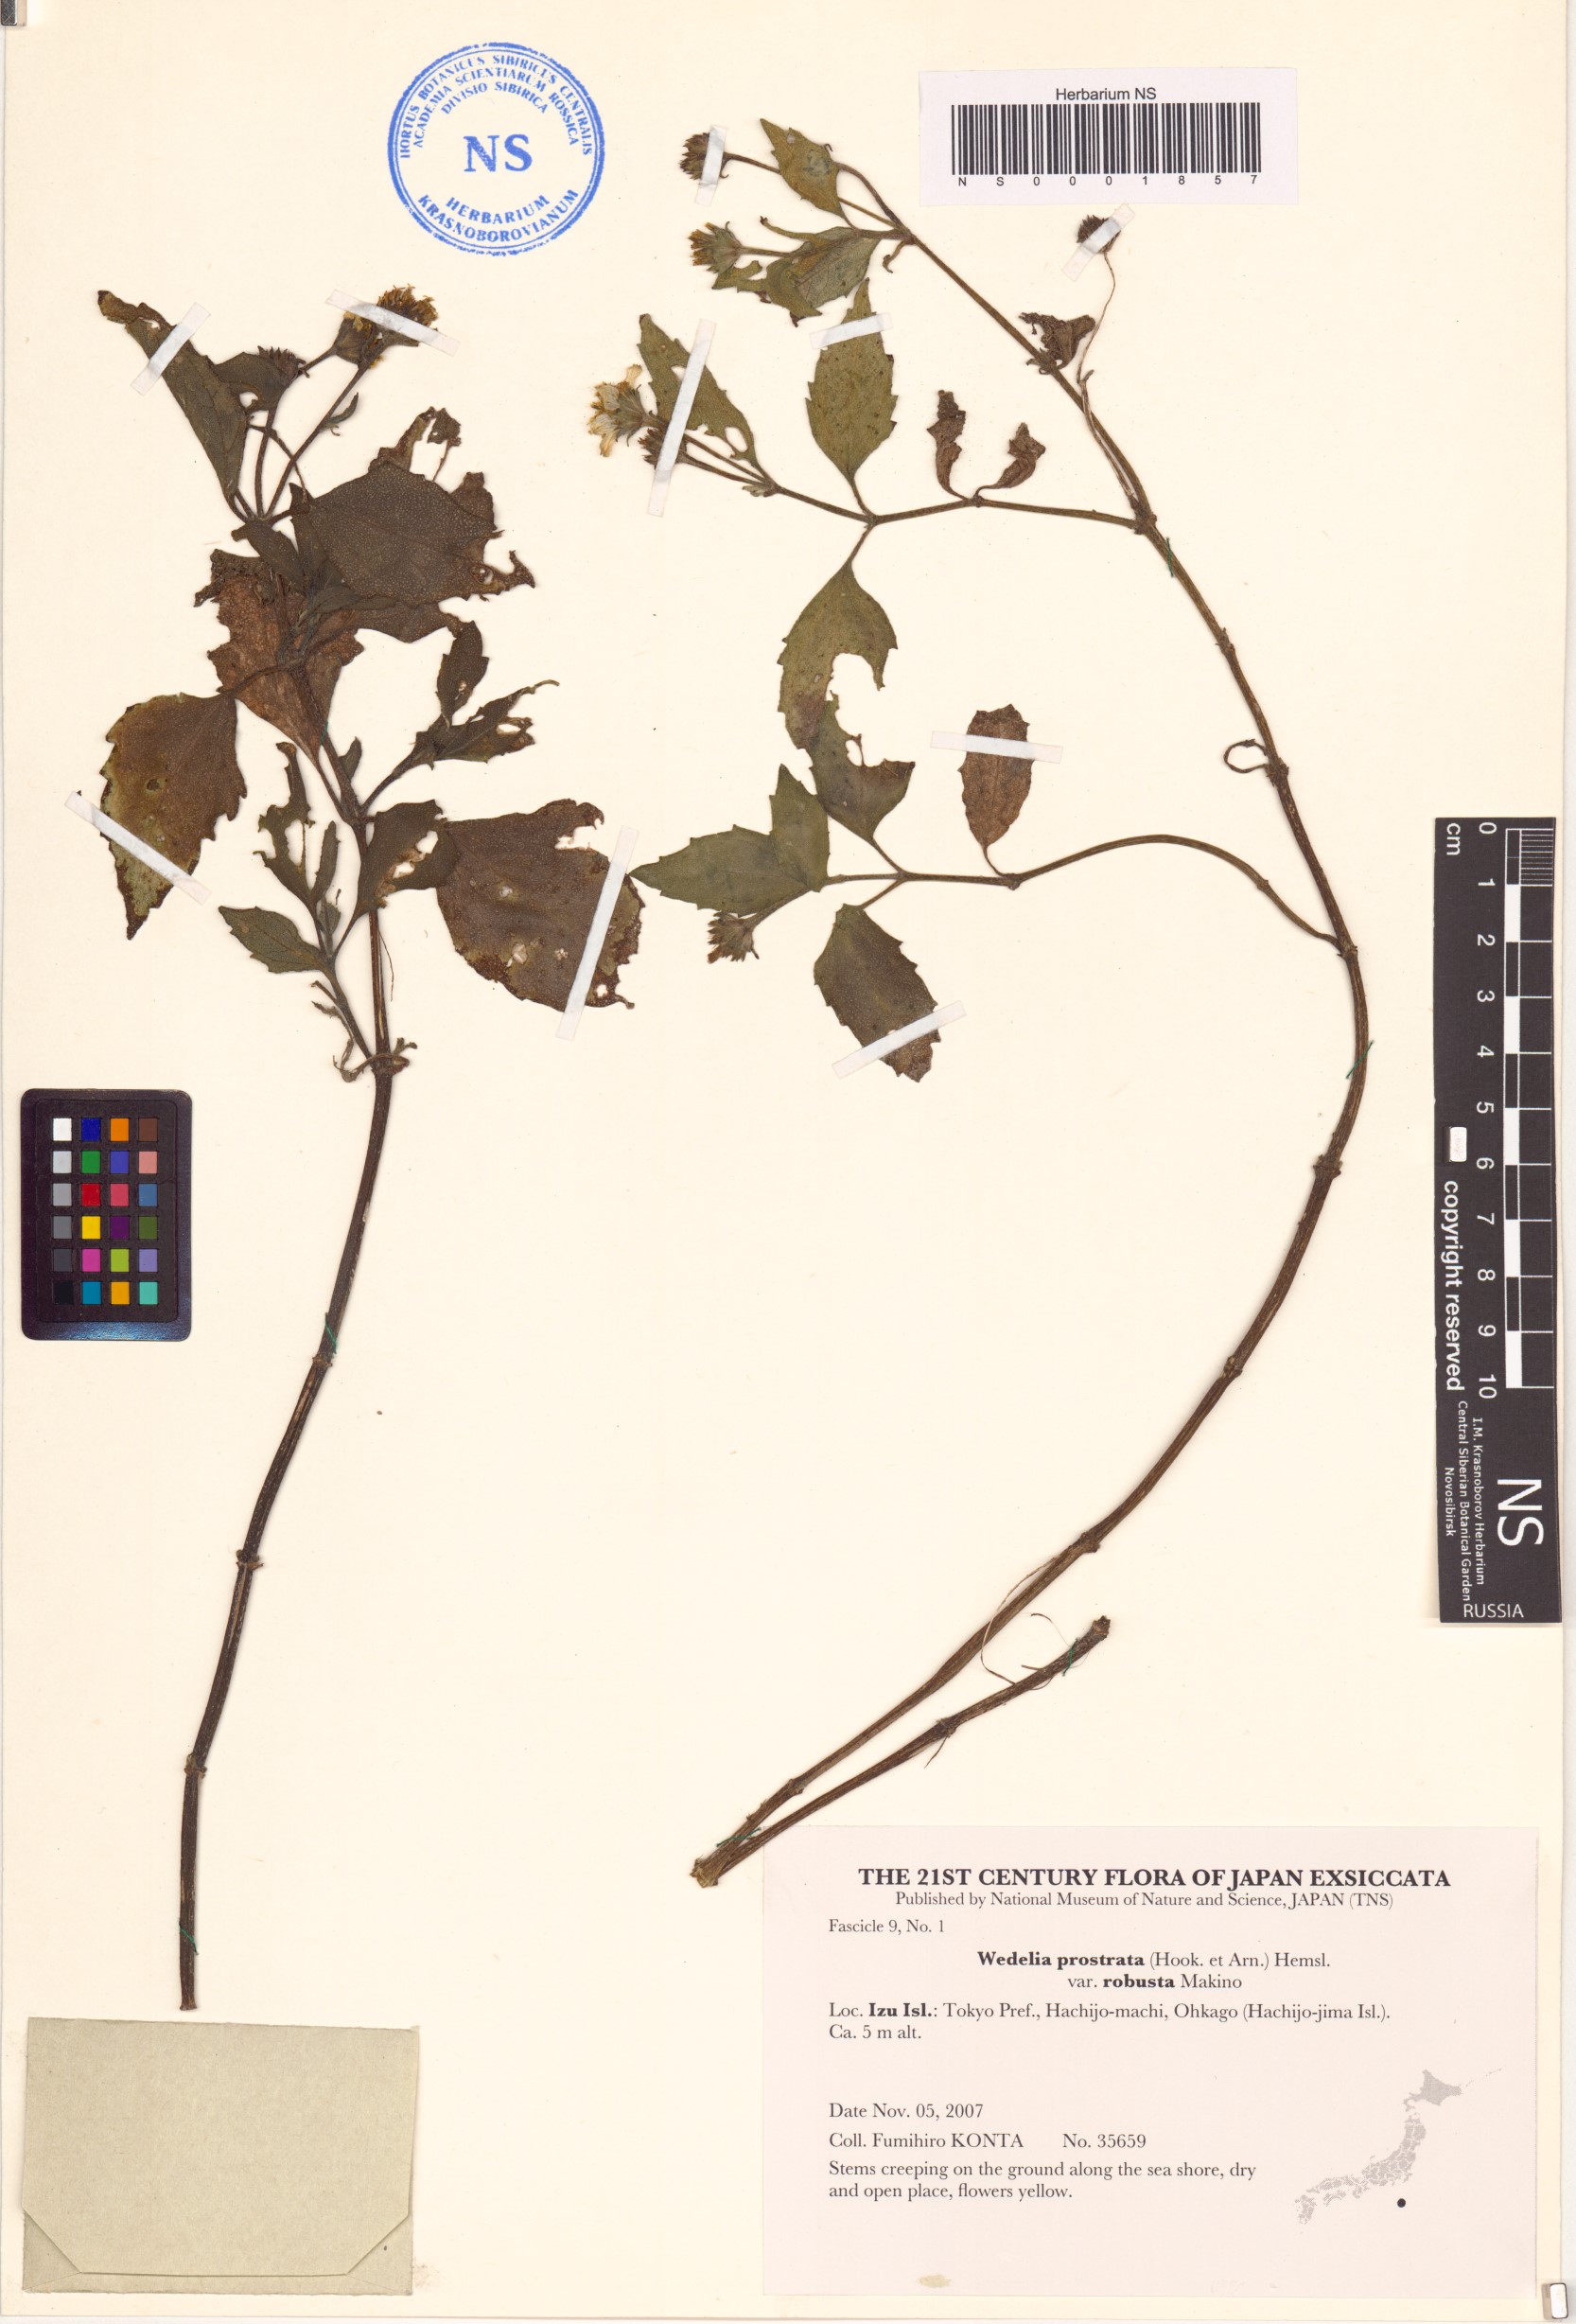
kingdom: Plantae
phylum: Tracheophyta
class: Magnoliopsida
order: Asterales
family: Asteraceae
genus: Melanthera
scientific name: Melanthera robusta
